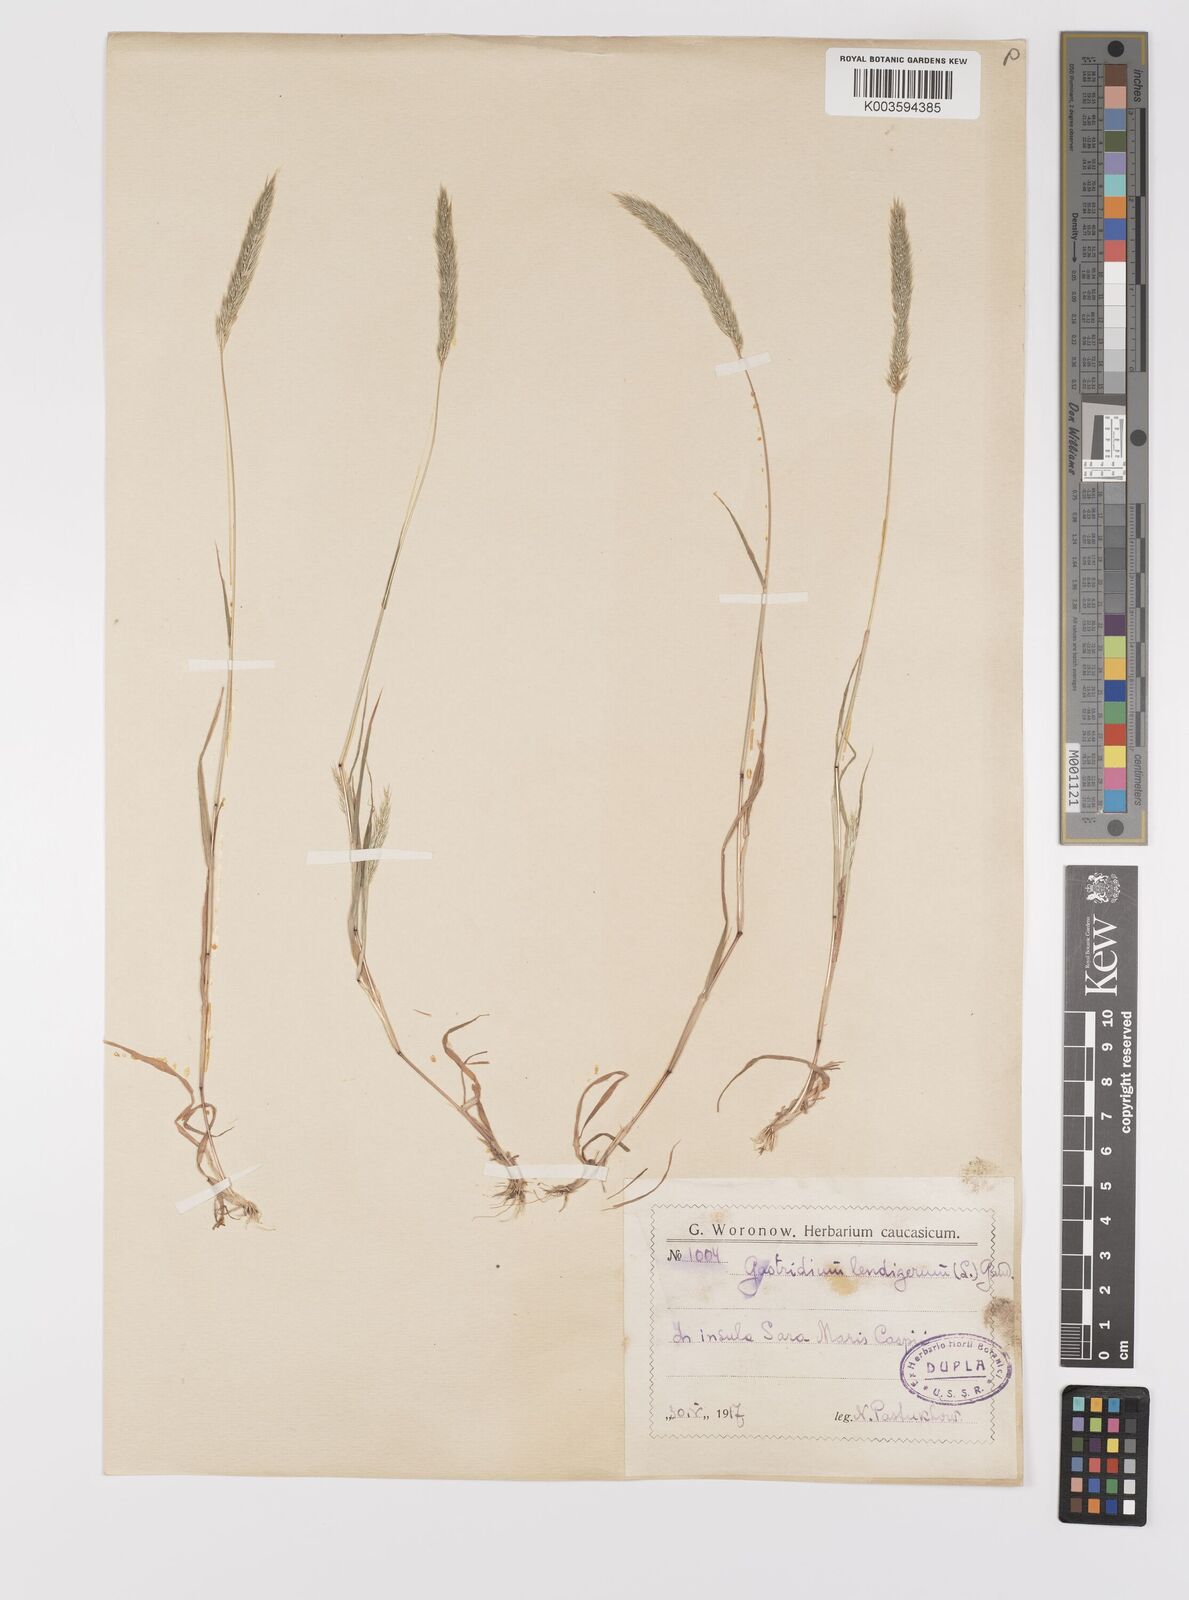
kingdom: Plantae
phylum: Tracheophyta
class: Liliopsida
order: Poales
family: Poaceae
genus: Gastridium
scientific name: Gastridium phleoides
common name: Nit grass
